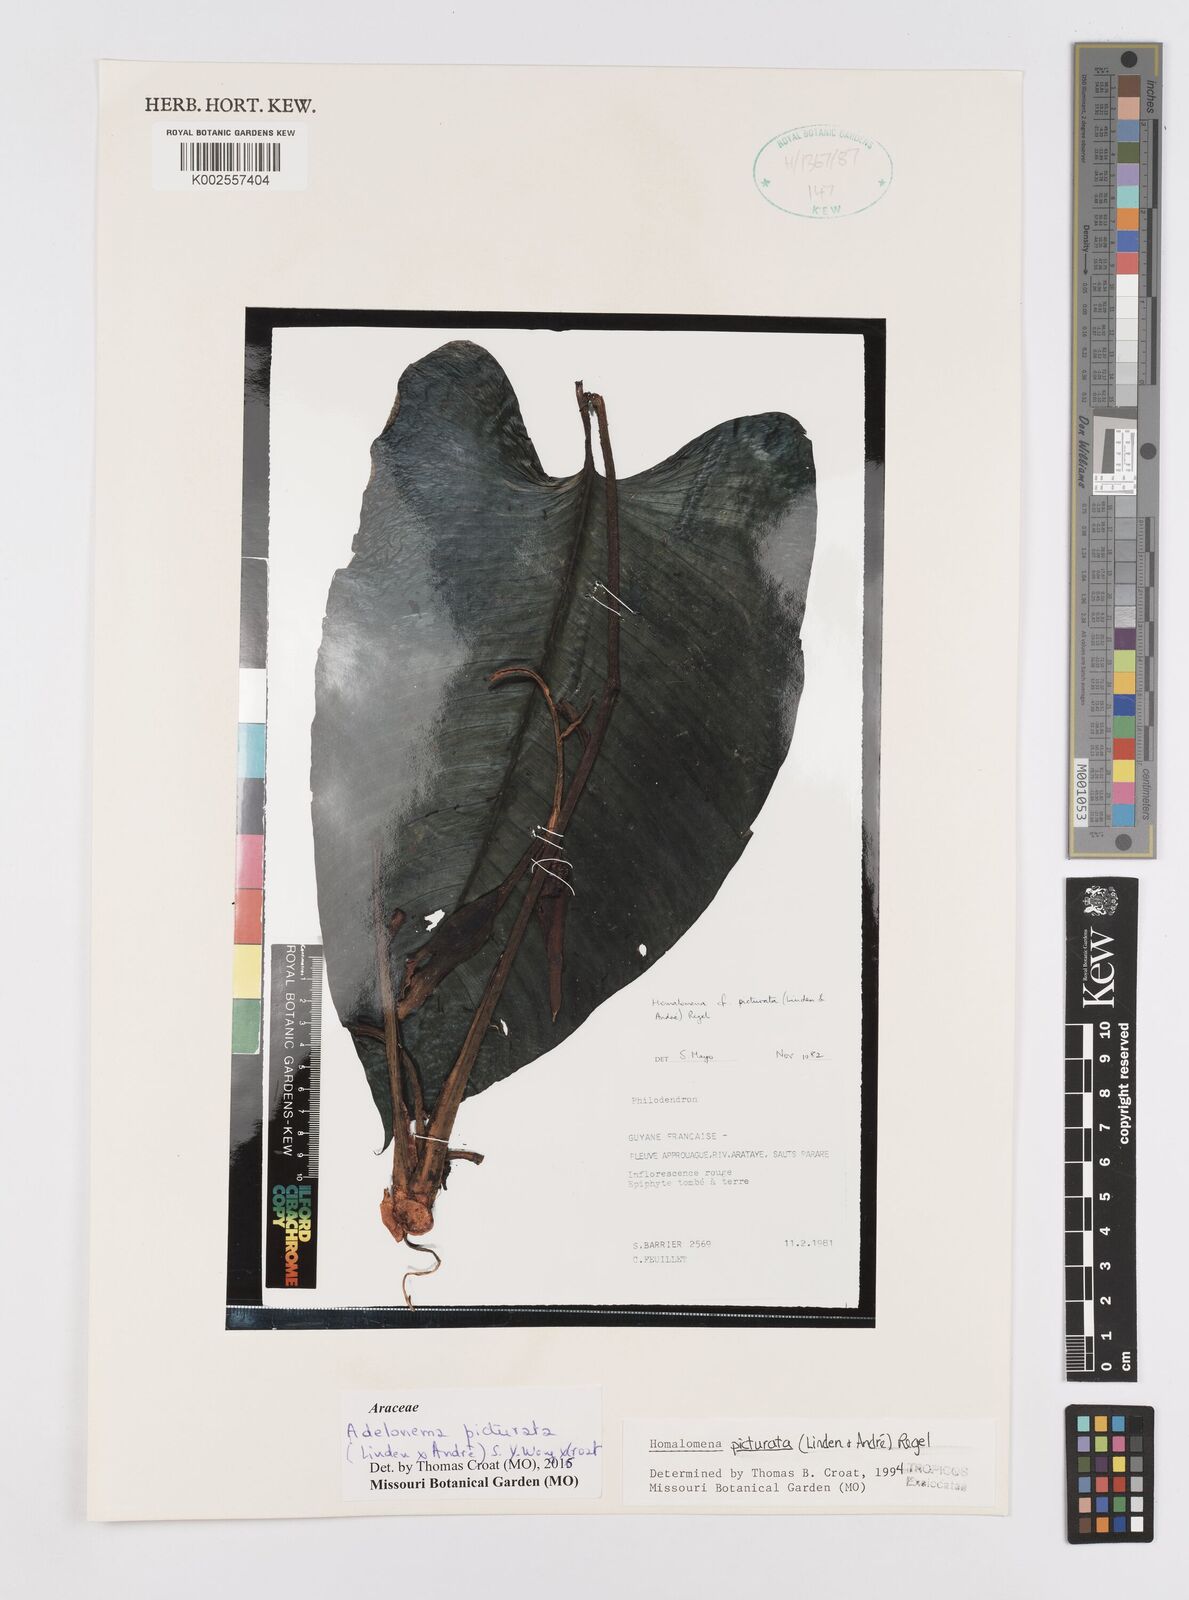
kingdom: Plantae
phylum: Tracheophyta
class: Liliopsida
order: Alismatales
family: Araceae
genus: Adelonema
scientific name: Adelonema picturatum
